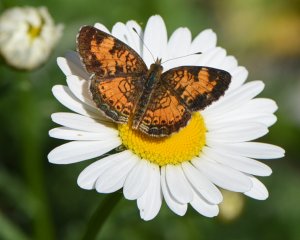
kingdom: Animalia
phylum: Arthropoda
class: Insecta
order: Lepidoptera
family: Nymphalidae
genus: Phyciodes
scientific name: Phyciodes tharos
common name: Pearl Crescent
